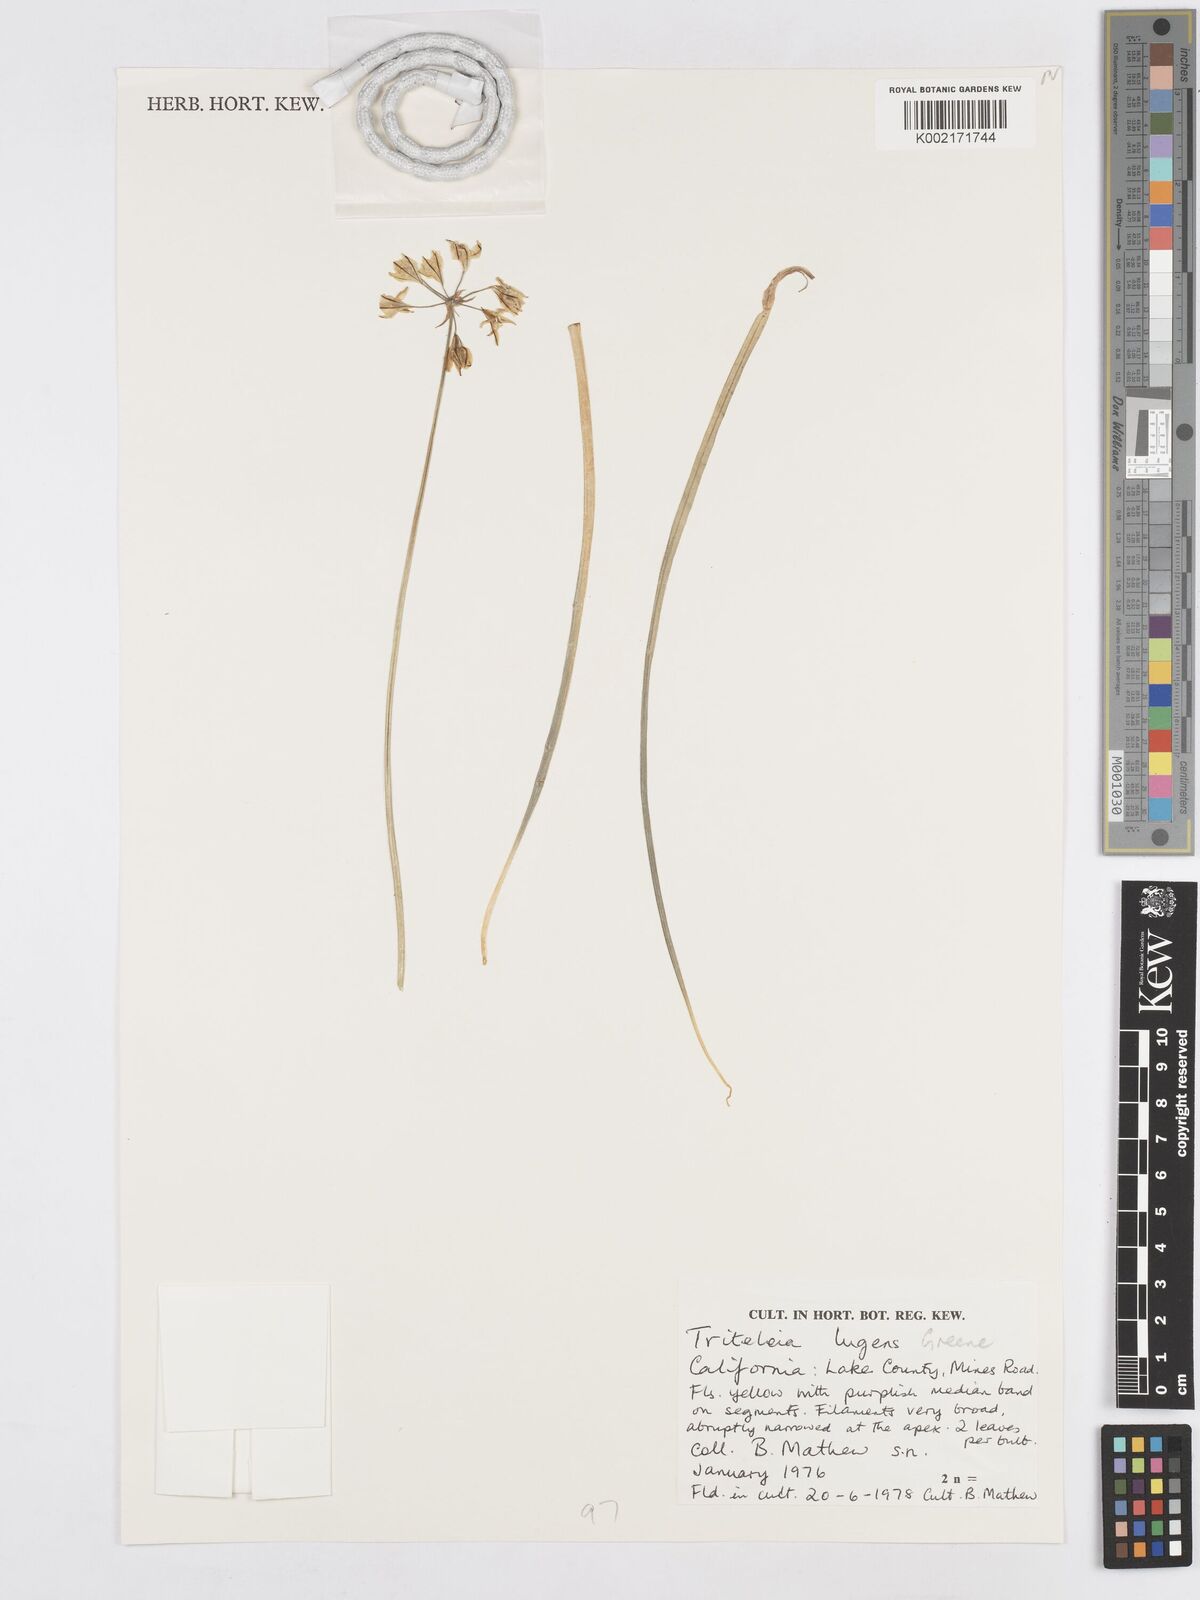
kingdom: Plantae
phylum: Tracheophyta
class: Liliopsida
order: Asparagales
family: Asparagaceae
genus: Triteleia
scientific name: Triteleia lugens
